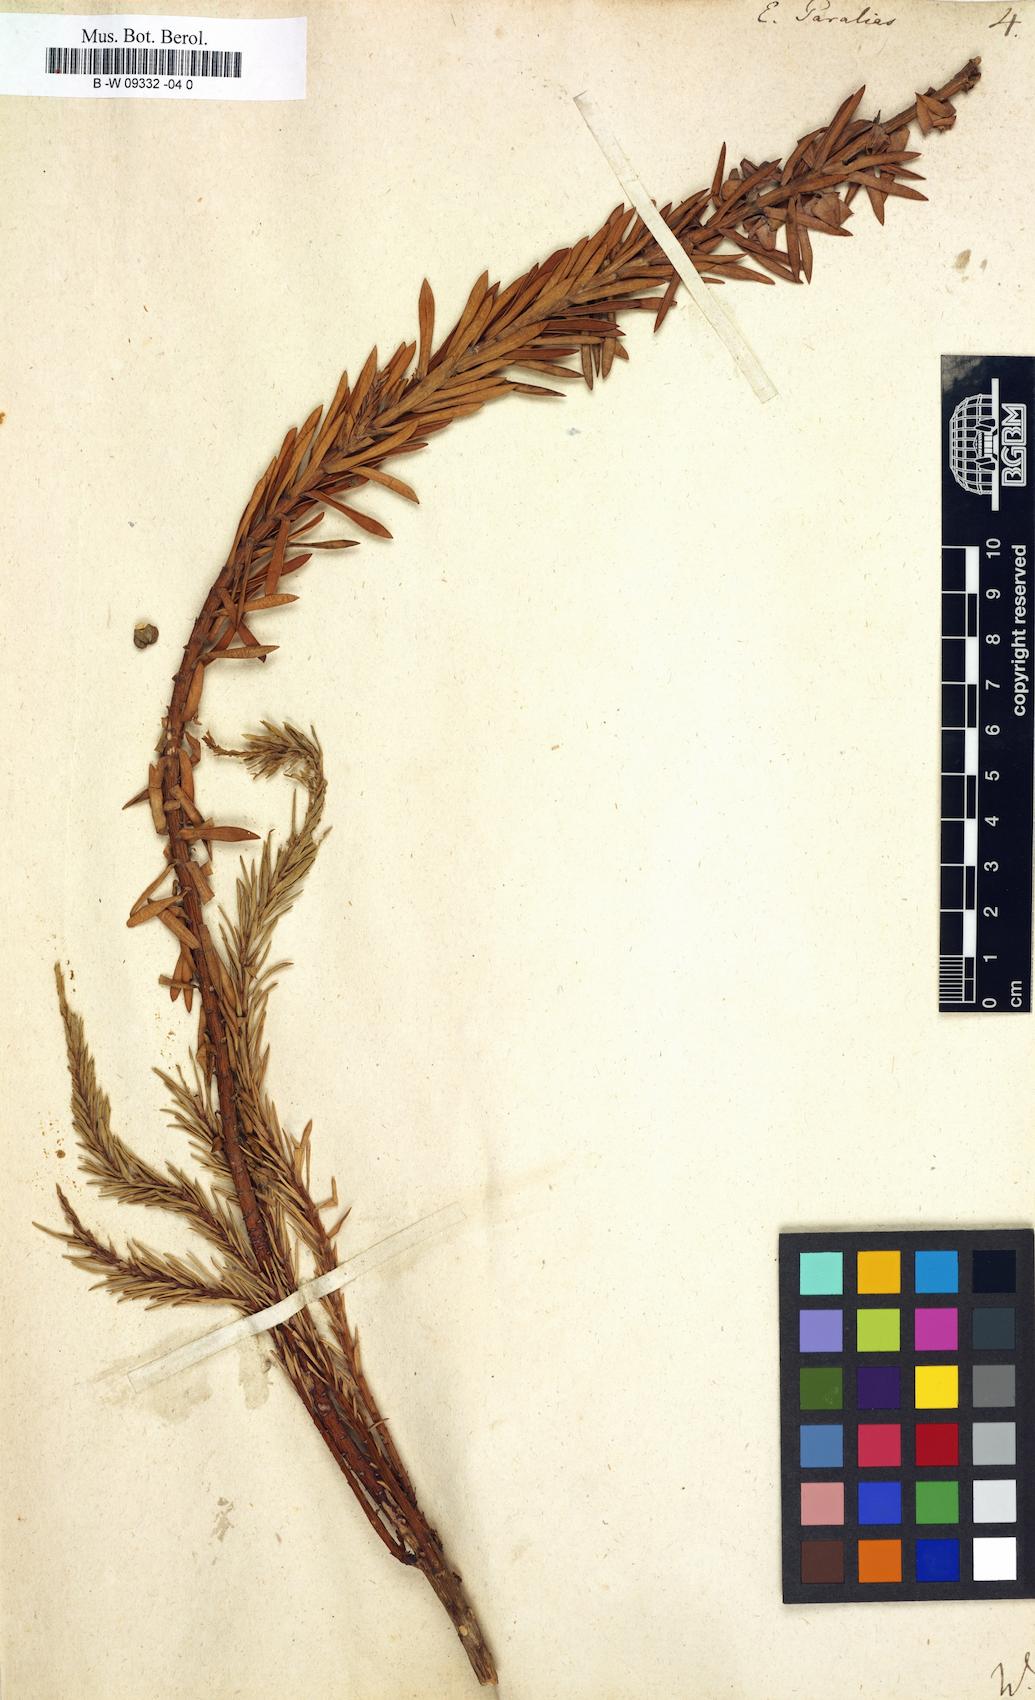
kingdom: Plantae
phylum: Tracheophyta
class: Magnoliopsida
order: Malpighiales
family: Euphorbiaceae
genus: Euphorbia
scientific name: Euphorbia paralias
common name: Sea spurge
